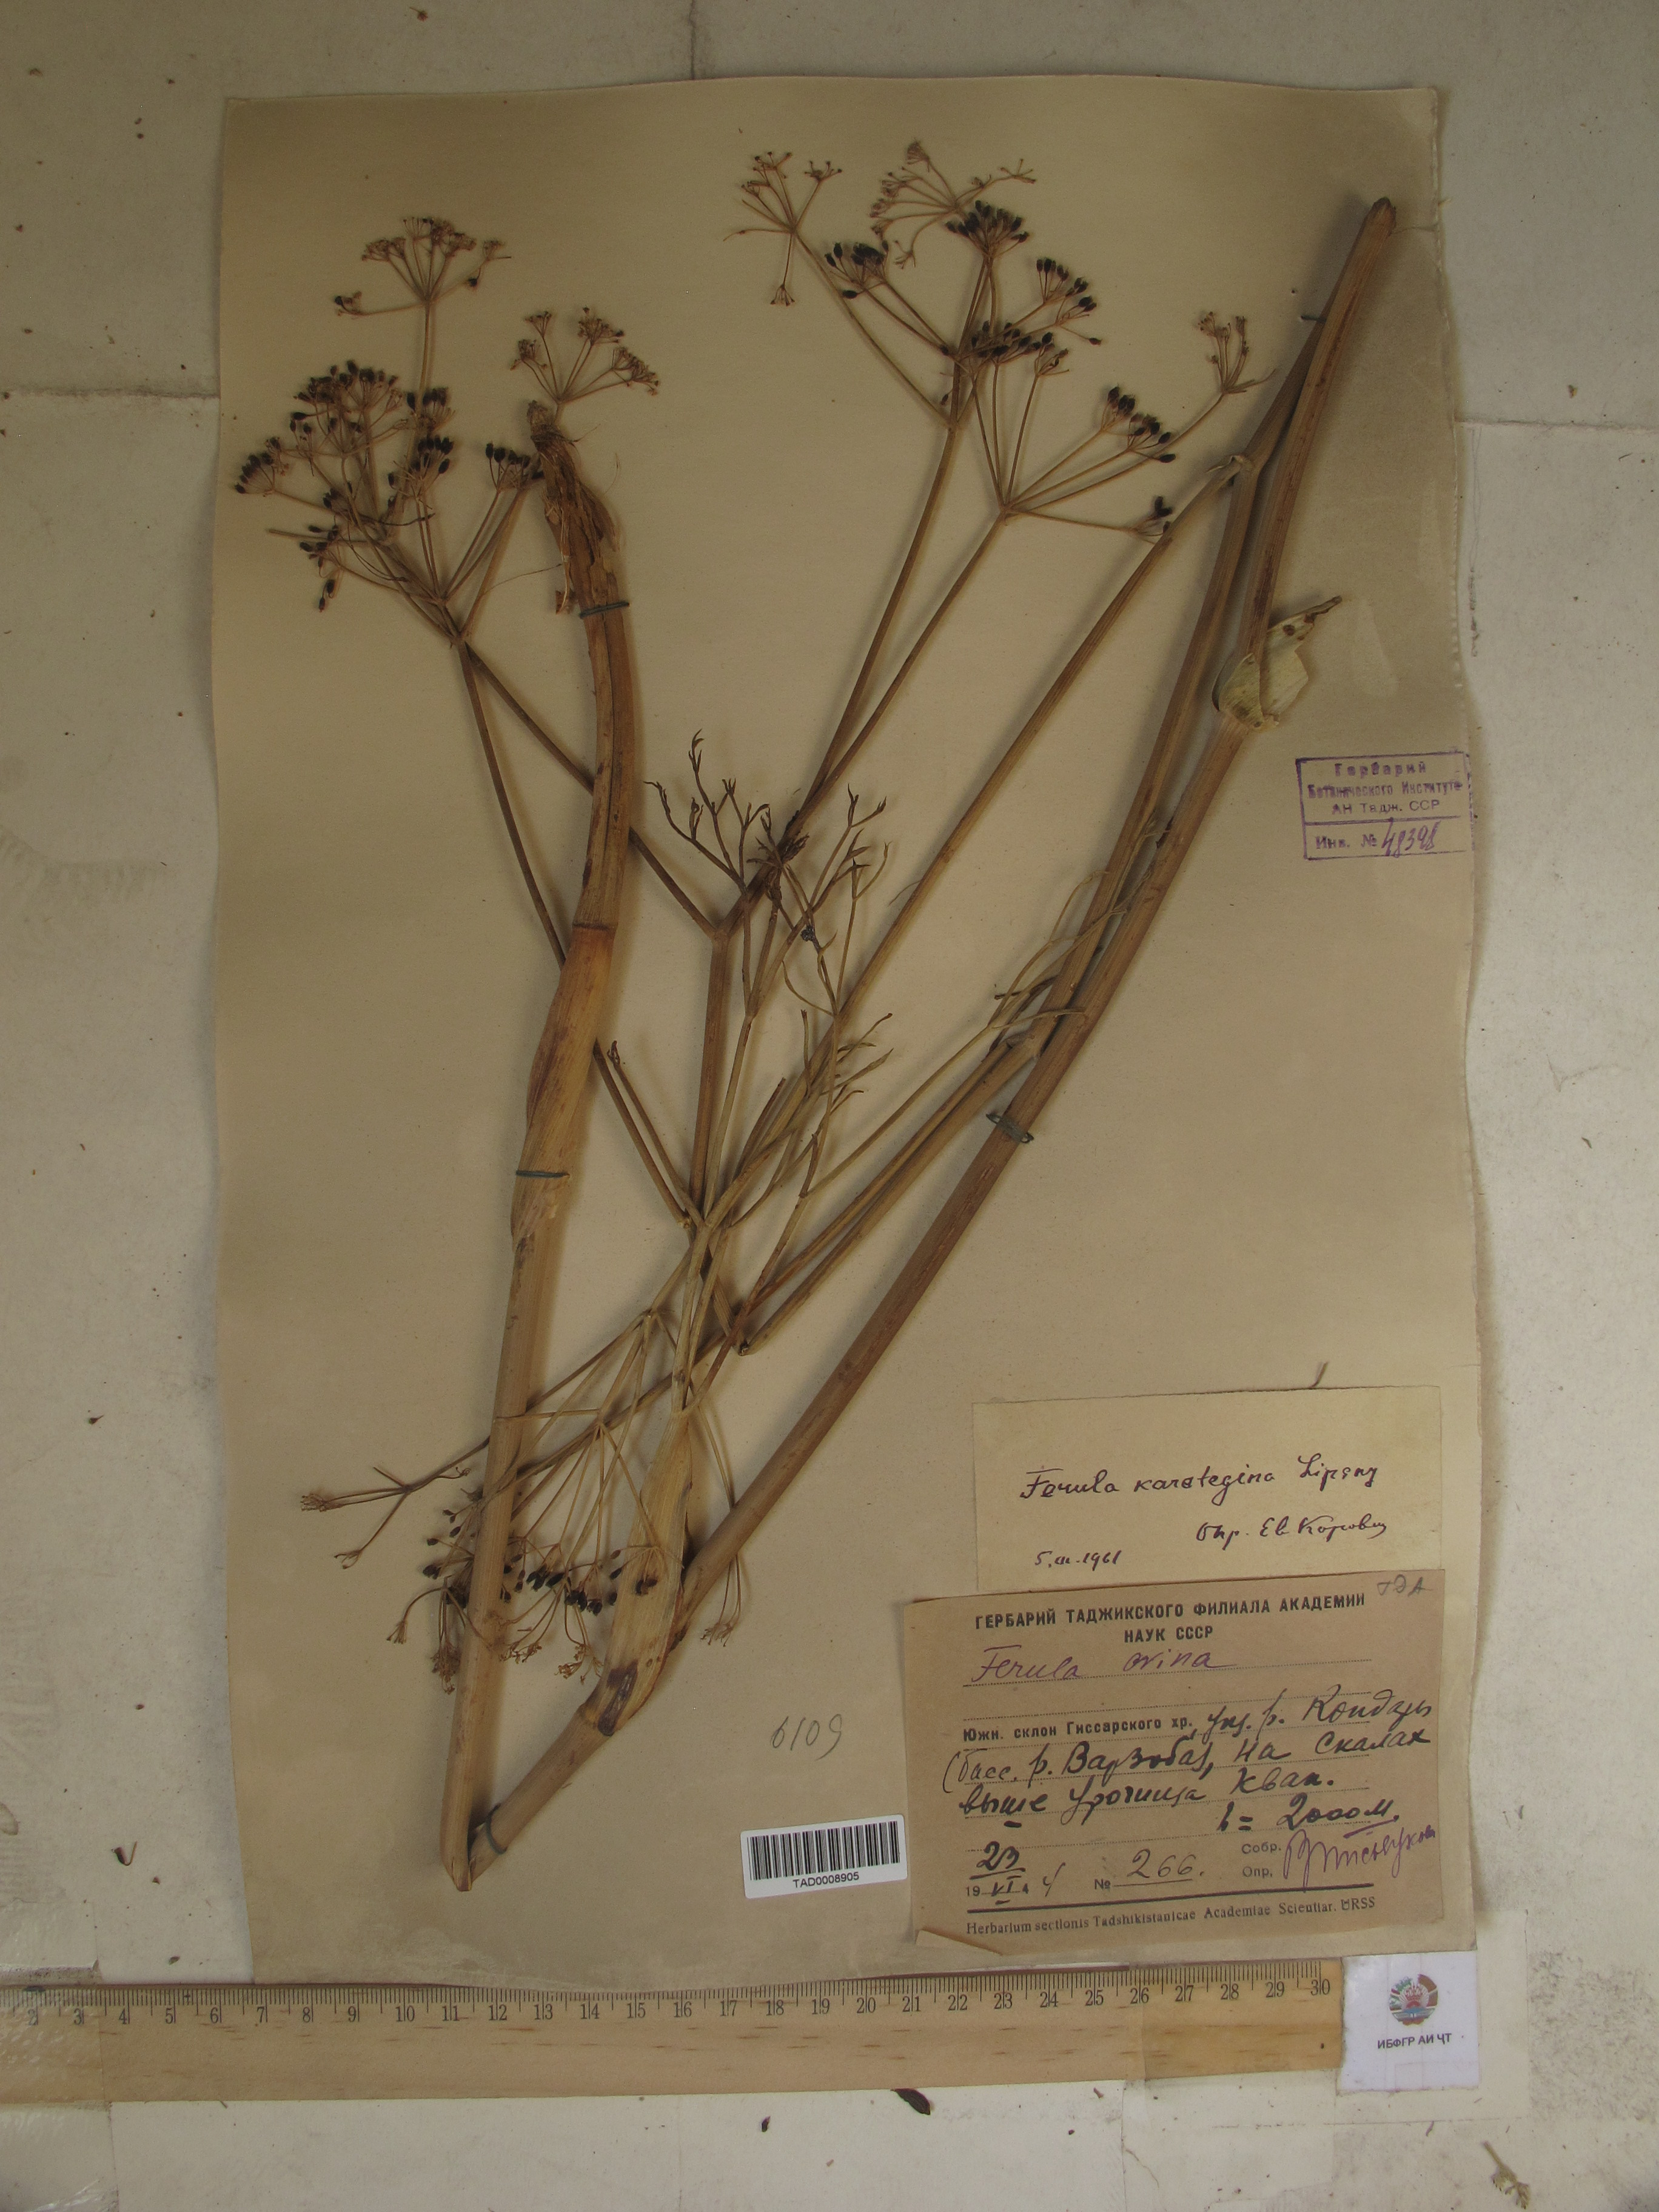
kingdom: Plantae
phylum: Tracheophyta
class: Magnoliopsida
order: Apiales
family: Apiaceae
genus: Ferula
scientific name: Ferula karategina
